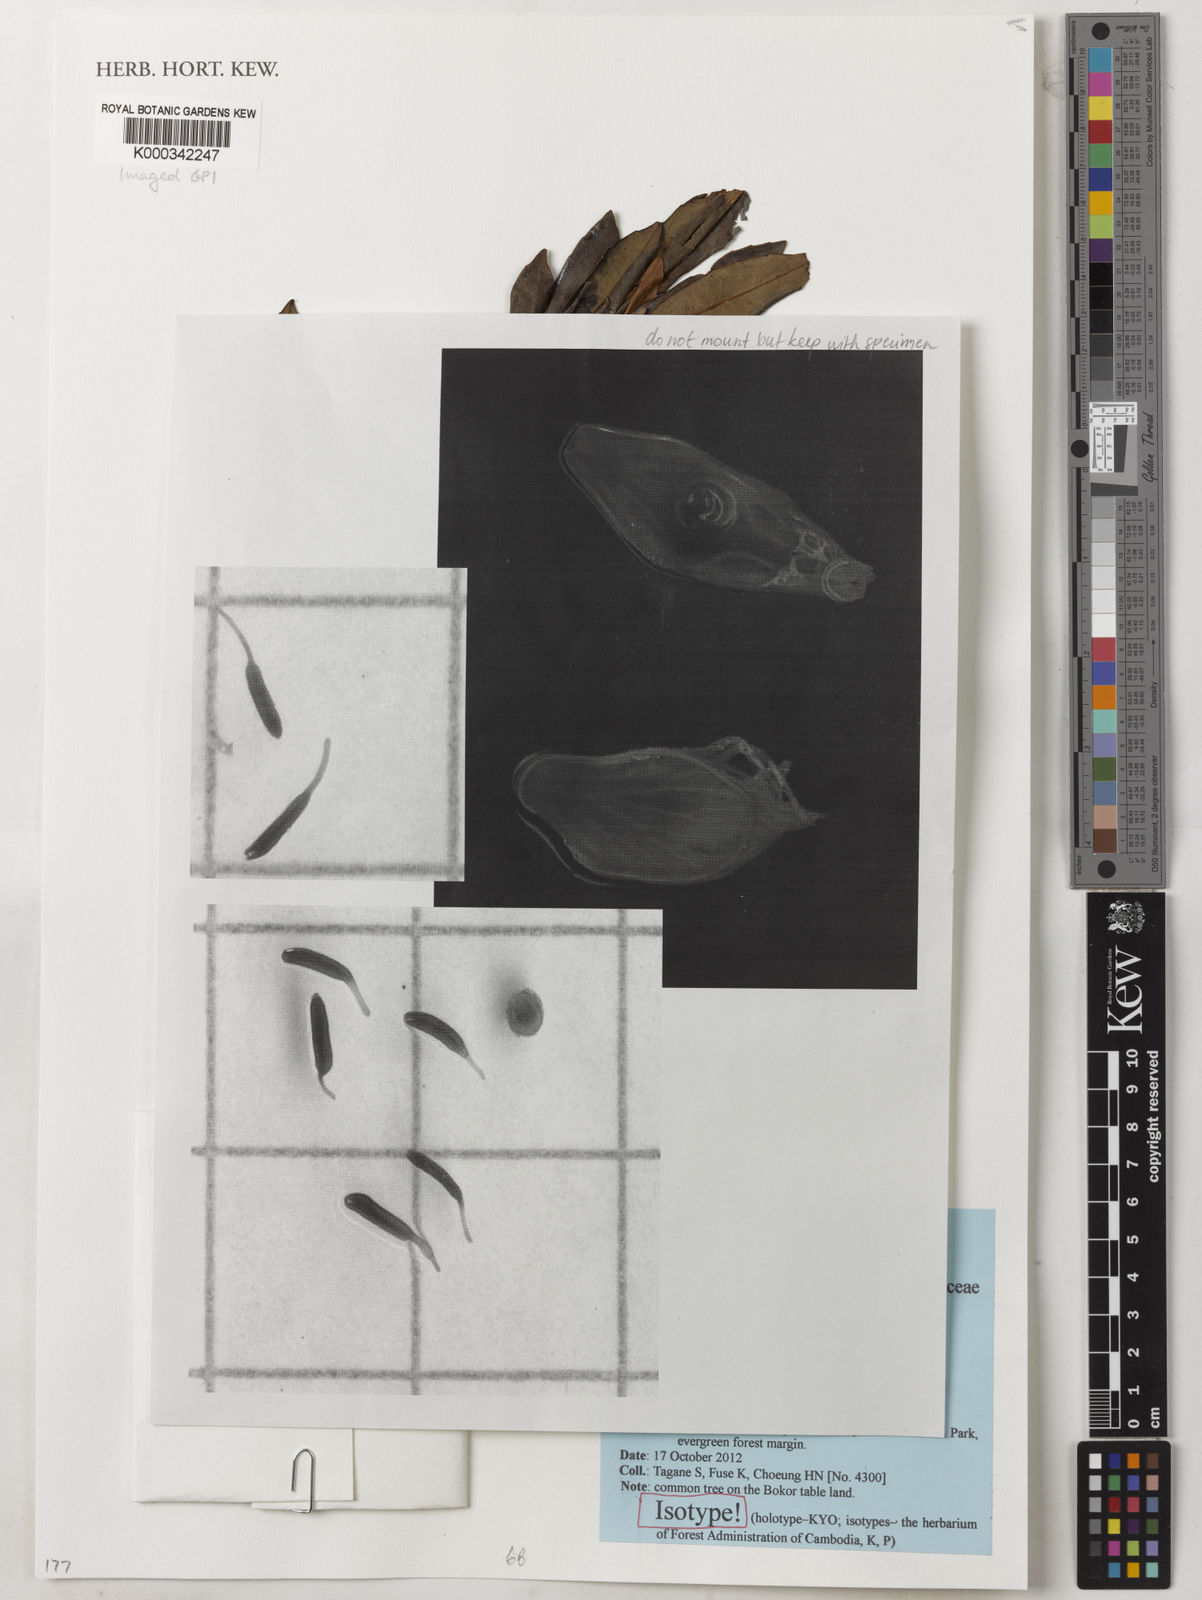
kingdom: Plantae
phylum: Tracheophyta
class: Magnoliopsida
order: Oxalidales
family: Elaeocarpaceae
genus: Elaeocarpus
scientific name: Elaeocarpus bokorensis
